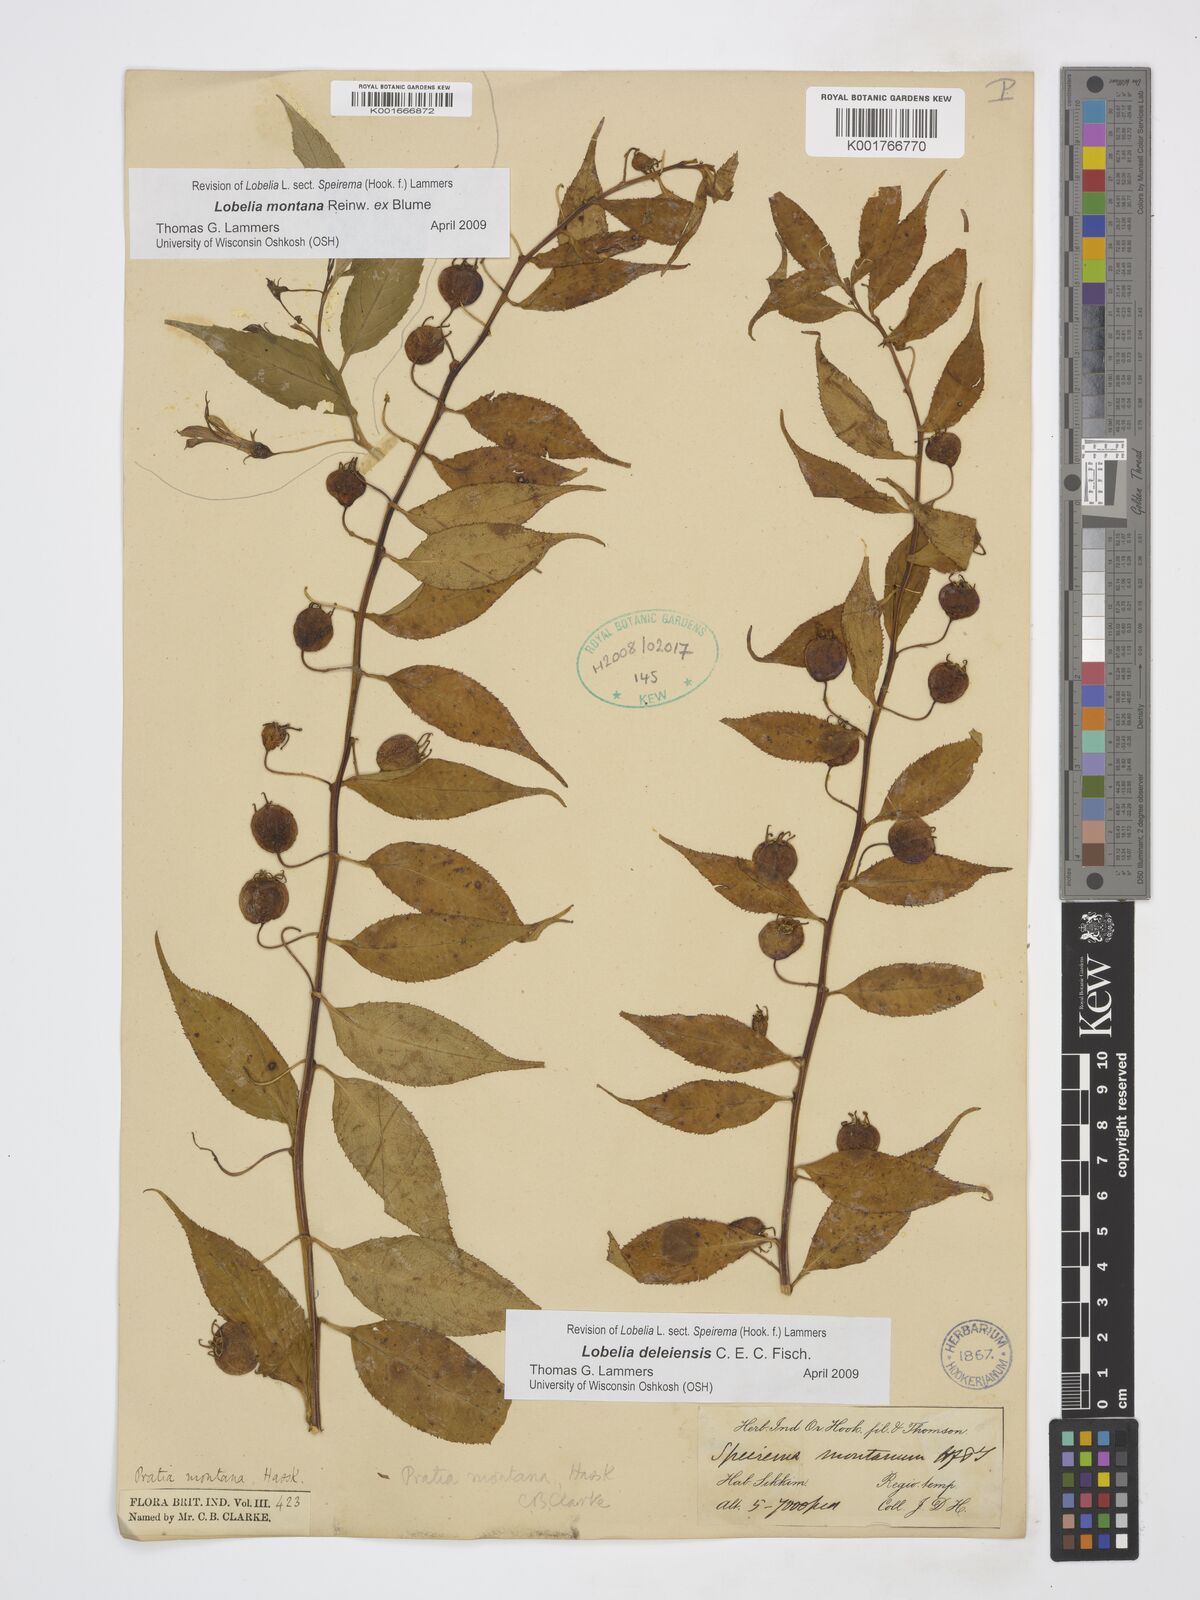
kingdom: Plantae
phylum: Tracheophyta
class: Magnoliopsida
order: Asterales
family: Campanulaceae
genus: Lobelia
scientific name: Lobelia deleiensis
